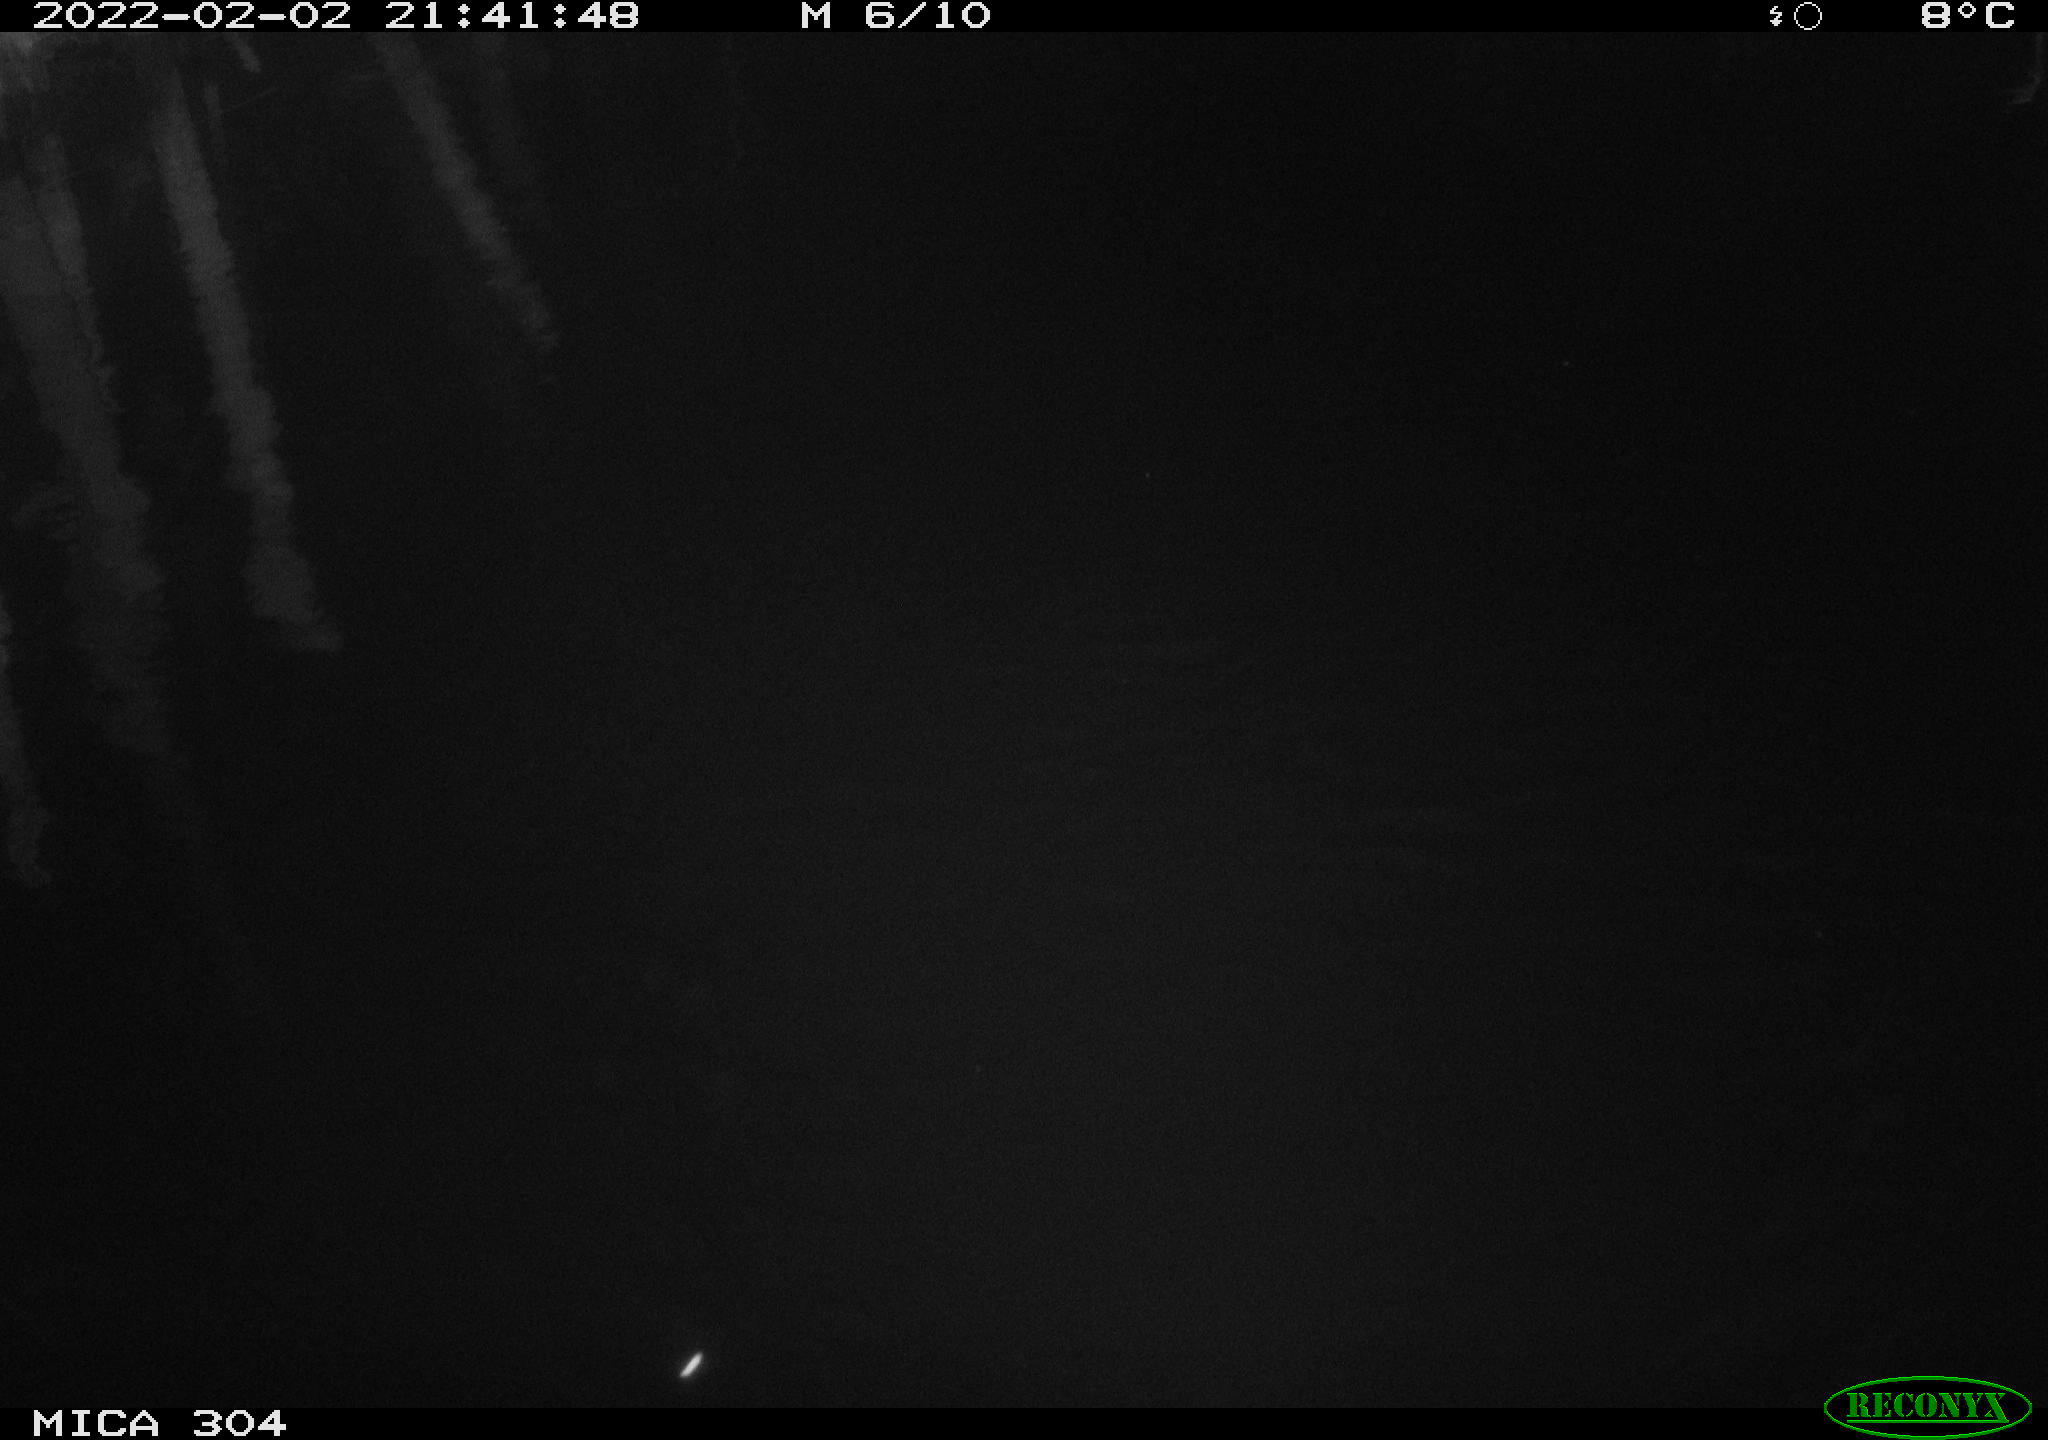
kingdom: Animalia
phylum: Chordata
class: Aves
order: Anseriformes
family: Anatidae
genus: Anas
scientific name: Anas
